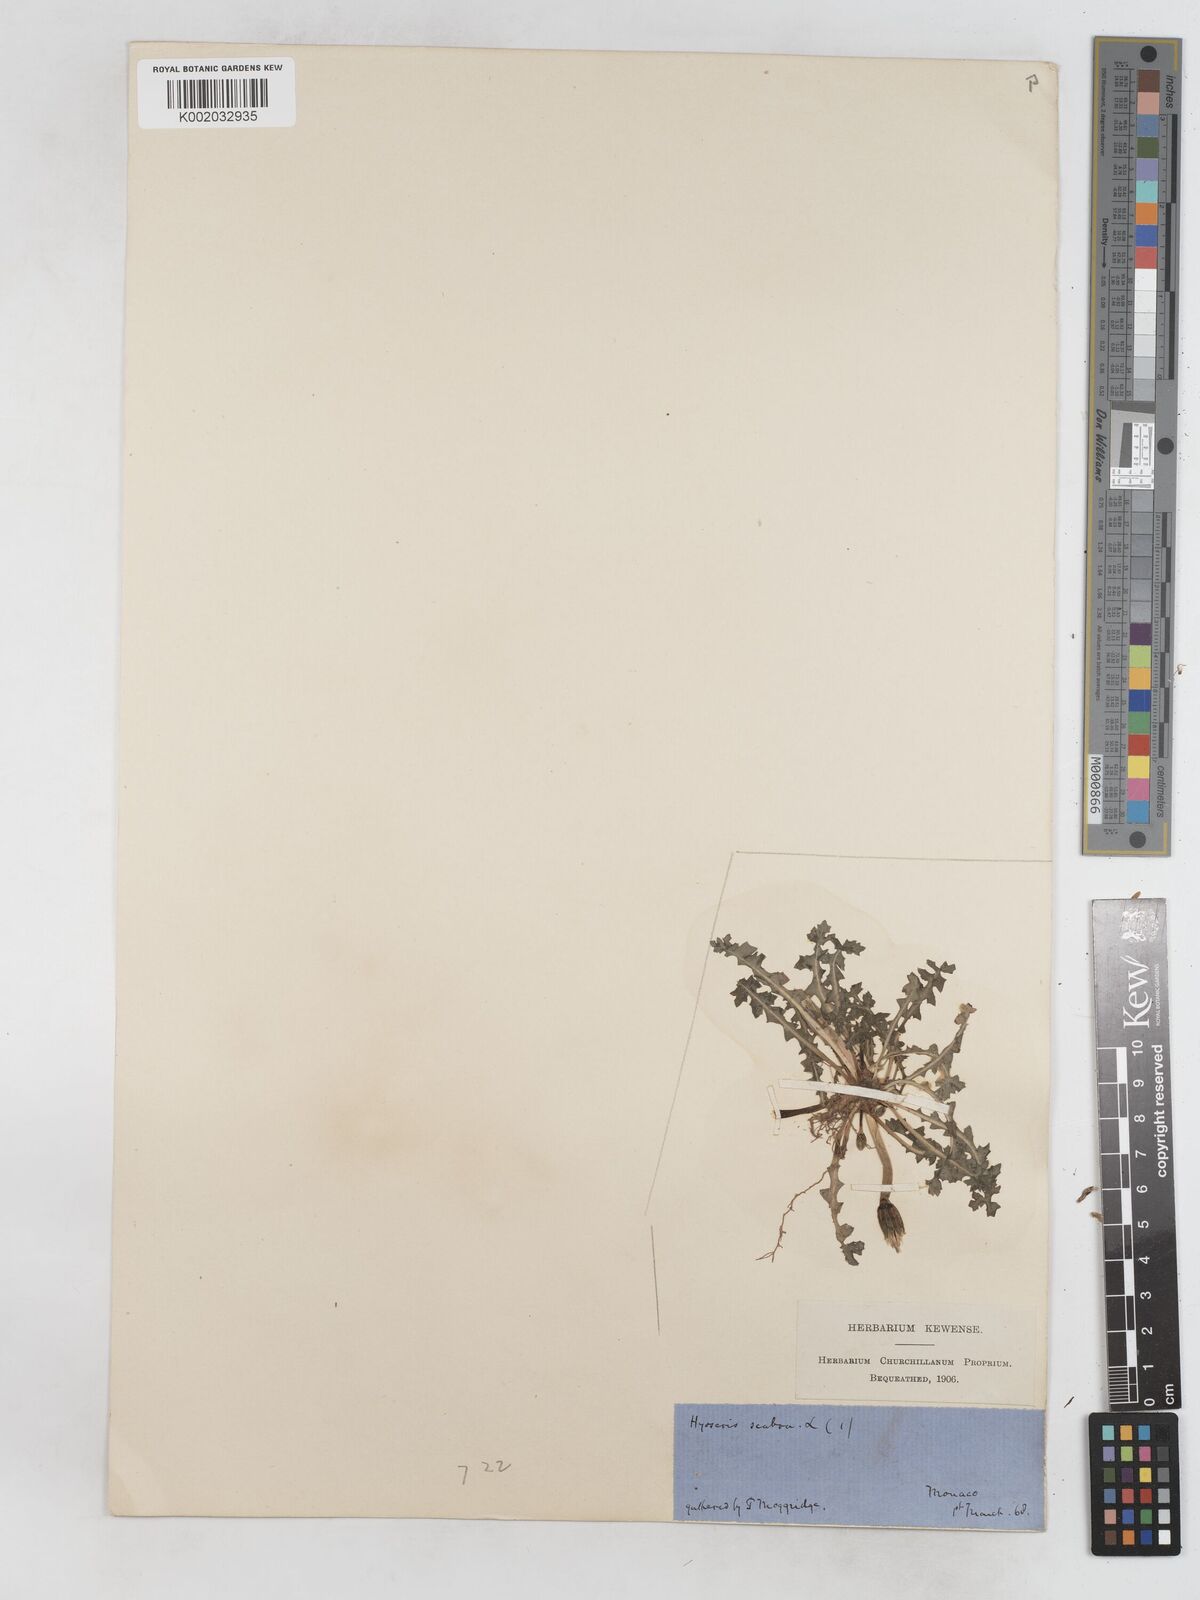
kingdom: Plantae
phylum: Tracheophyta
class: Magnoliopsida
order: Asterales
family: Asteraceae
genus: Hyoseris
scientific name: Hyoseris scabra
